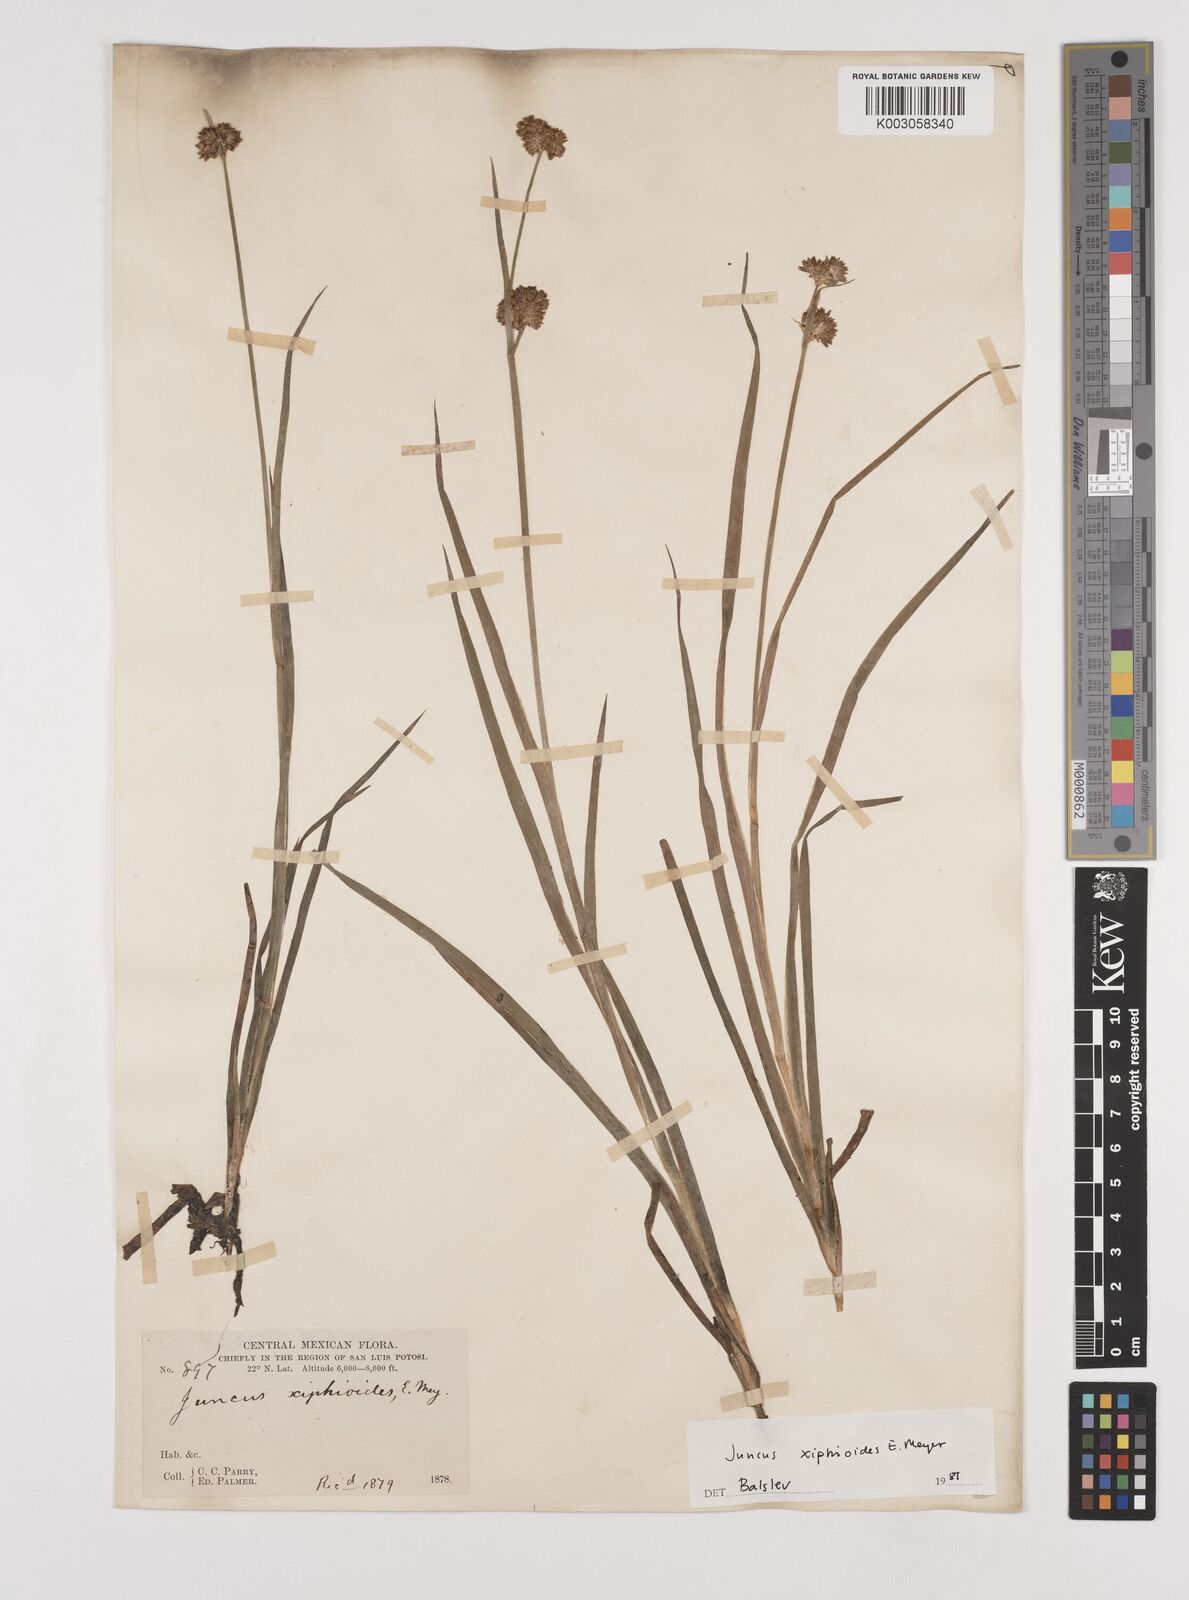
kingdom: Plantae
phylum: Tracheophyta
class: Liliopsida
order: Poales
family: Juncaceae
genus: Juncus
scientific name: Juncus xiphioides
